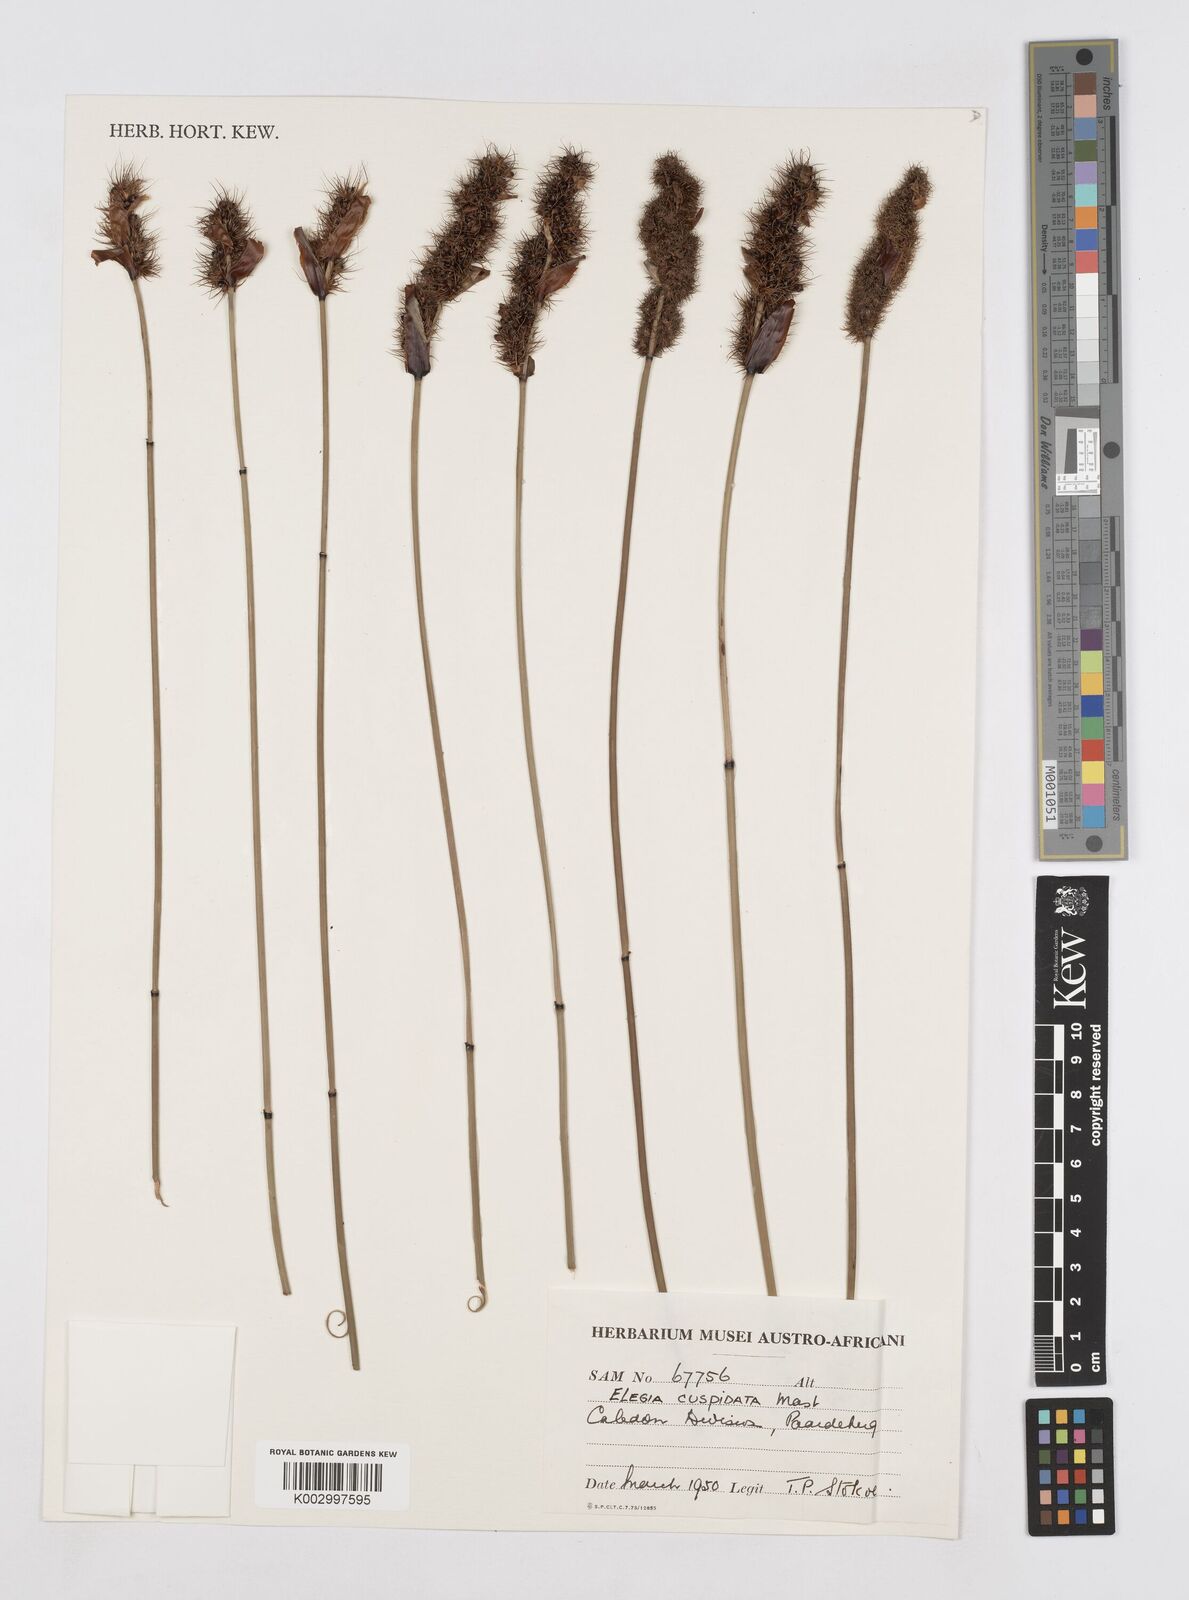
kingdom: Plantae
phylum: Tracheophyta
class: Liliopsida
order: Poales
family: Restionaceae
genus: Elegia
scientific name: Elegia cuspidata
